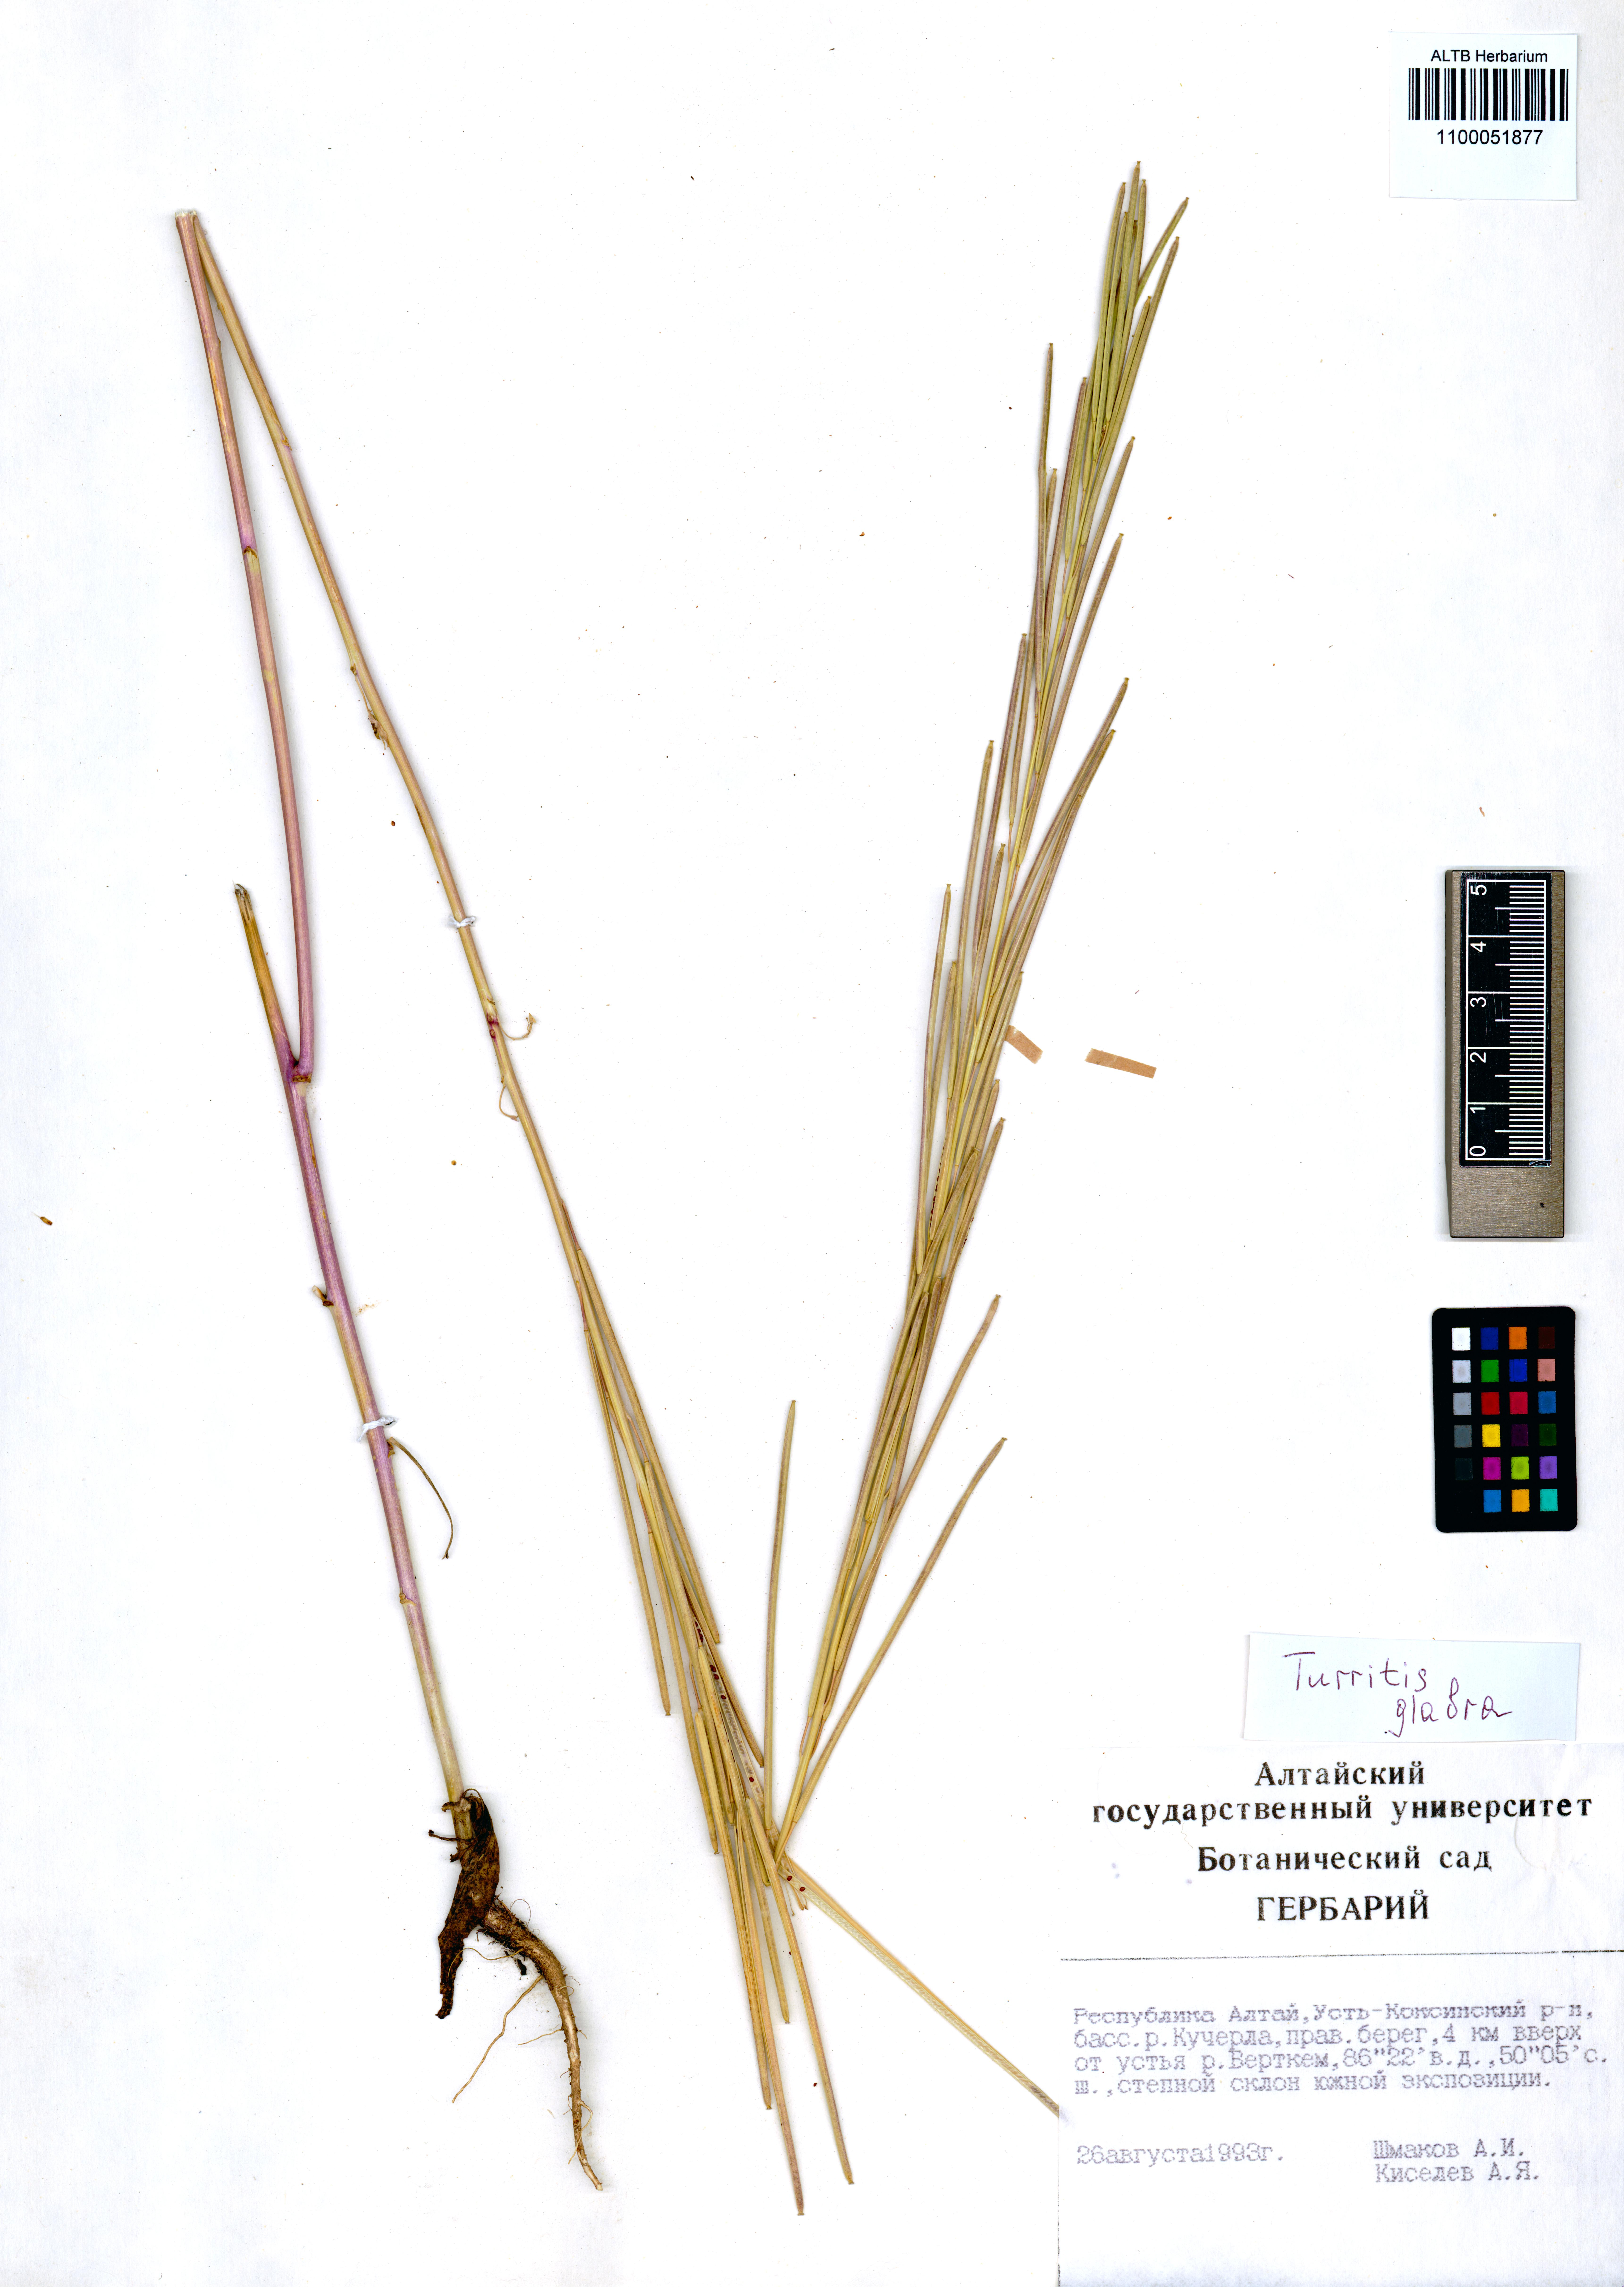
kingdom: Plantae
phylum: Tracheophyta
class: Magnoliopsida
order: Brassicales
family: Brassicaceae
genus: Turritis
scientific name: Turritis glabra
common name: Tower rockcress
